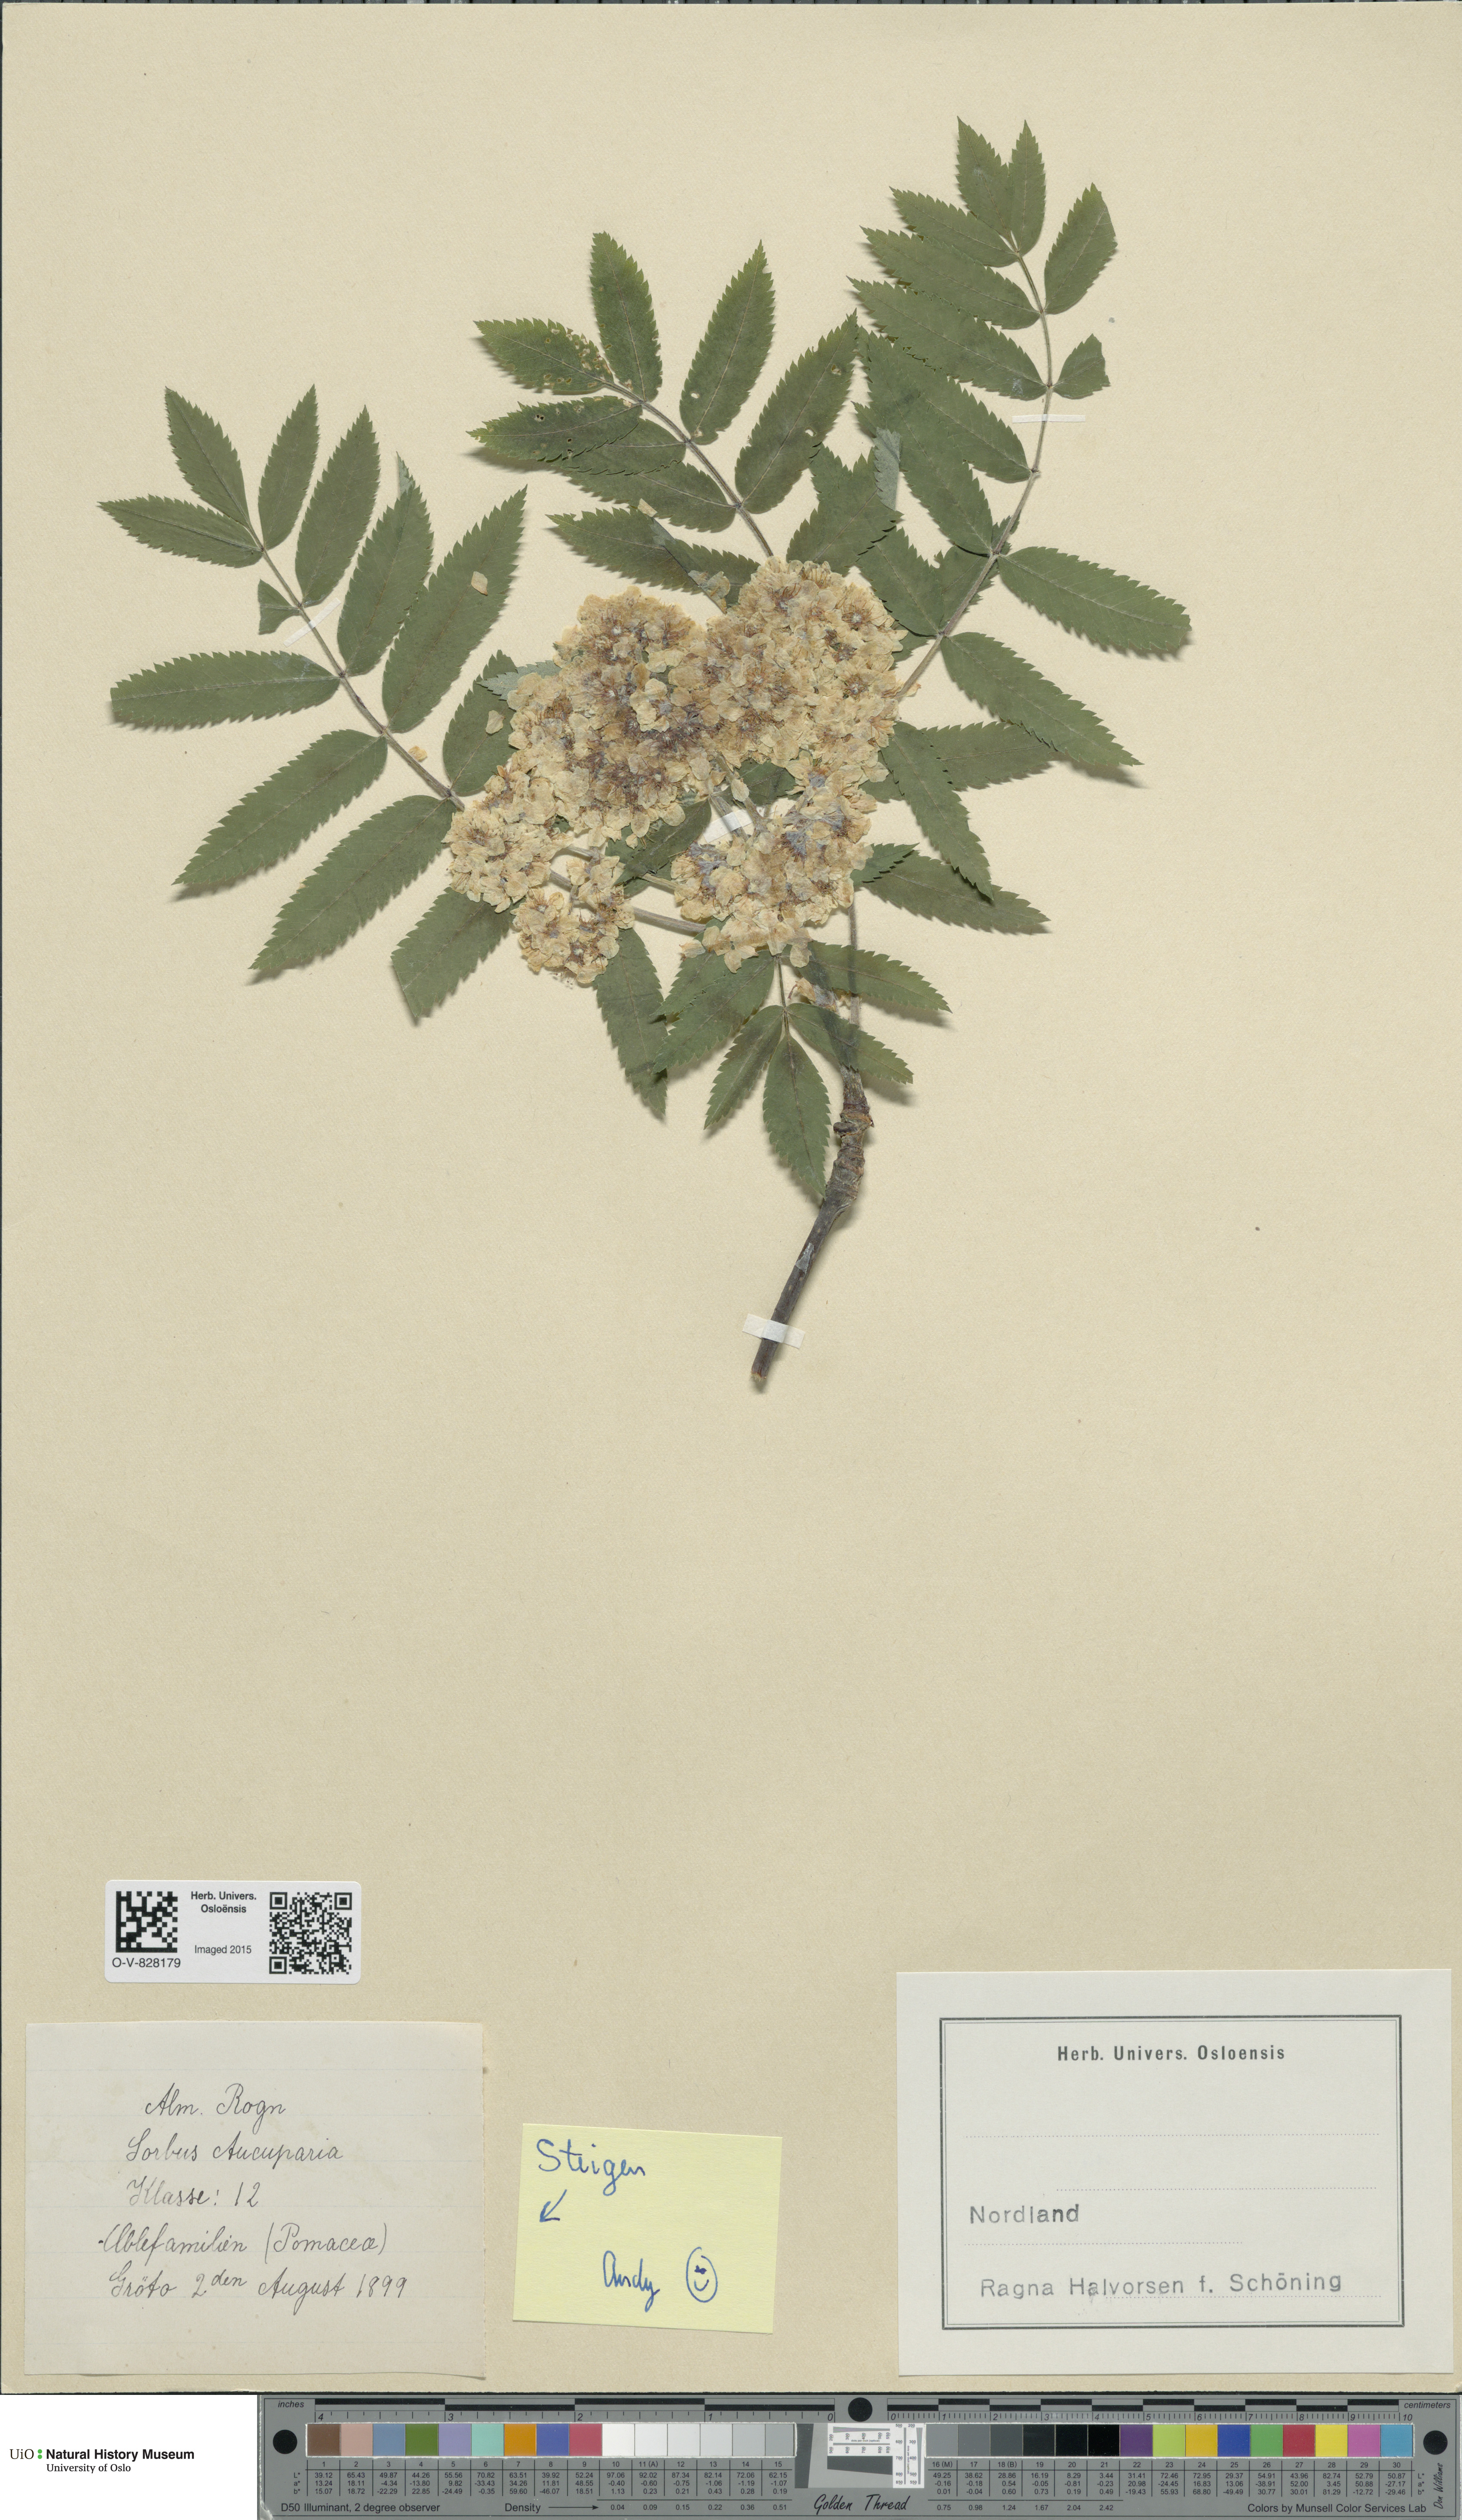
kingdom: Plantae
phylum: Tracheophyta
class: Magnoliopsida
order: Rosales
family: Rosaceae
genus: Sorbus
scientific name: Sorbus aucuparia
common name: Rowan
